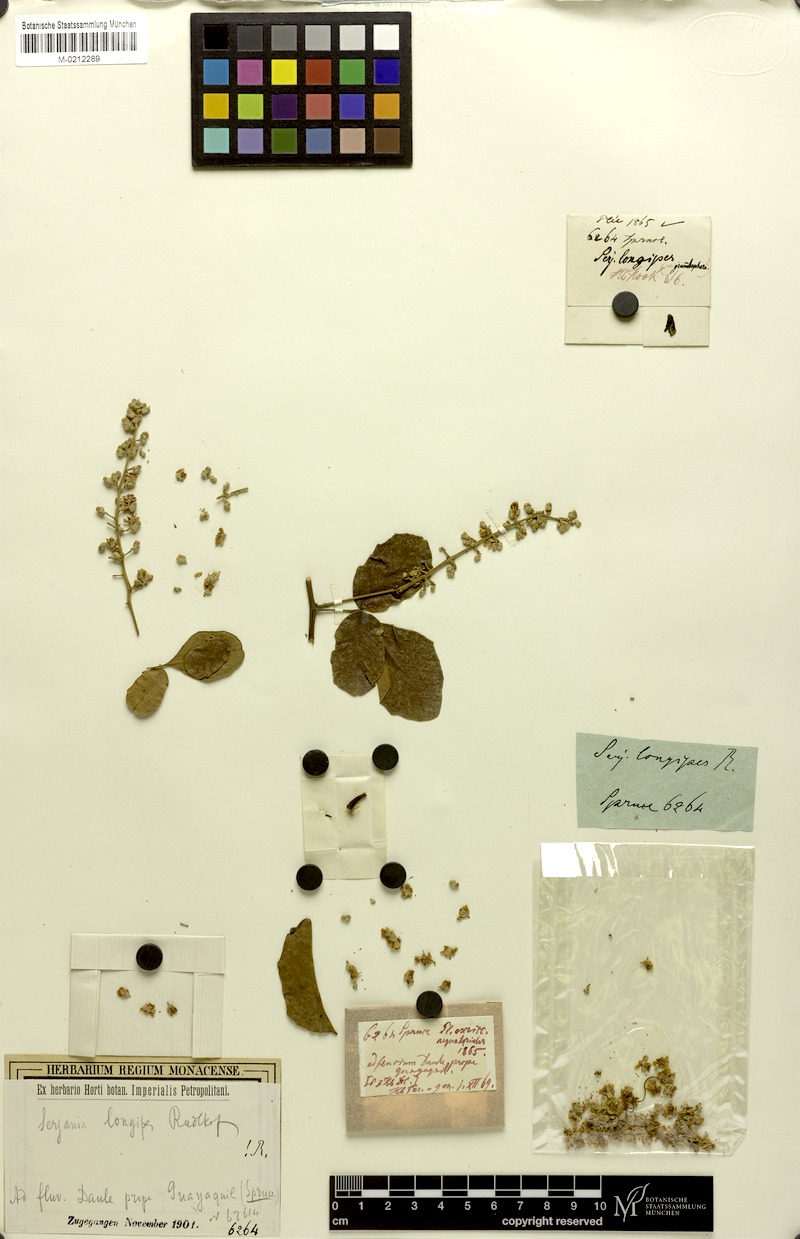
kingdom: Plantae
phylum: Tracheophyta
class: Magnoliopsida
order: Sapindales
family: Sapindaceae
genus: Serjania
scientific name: Serjania longipes
